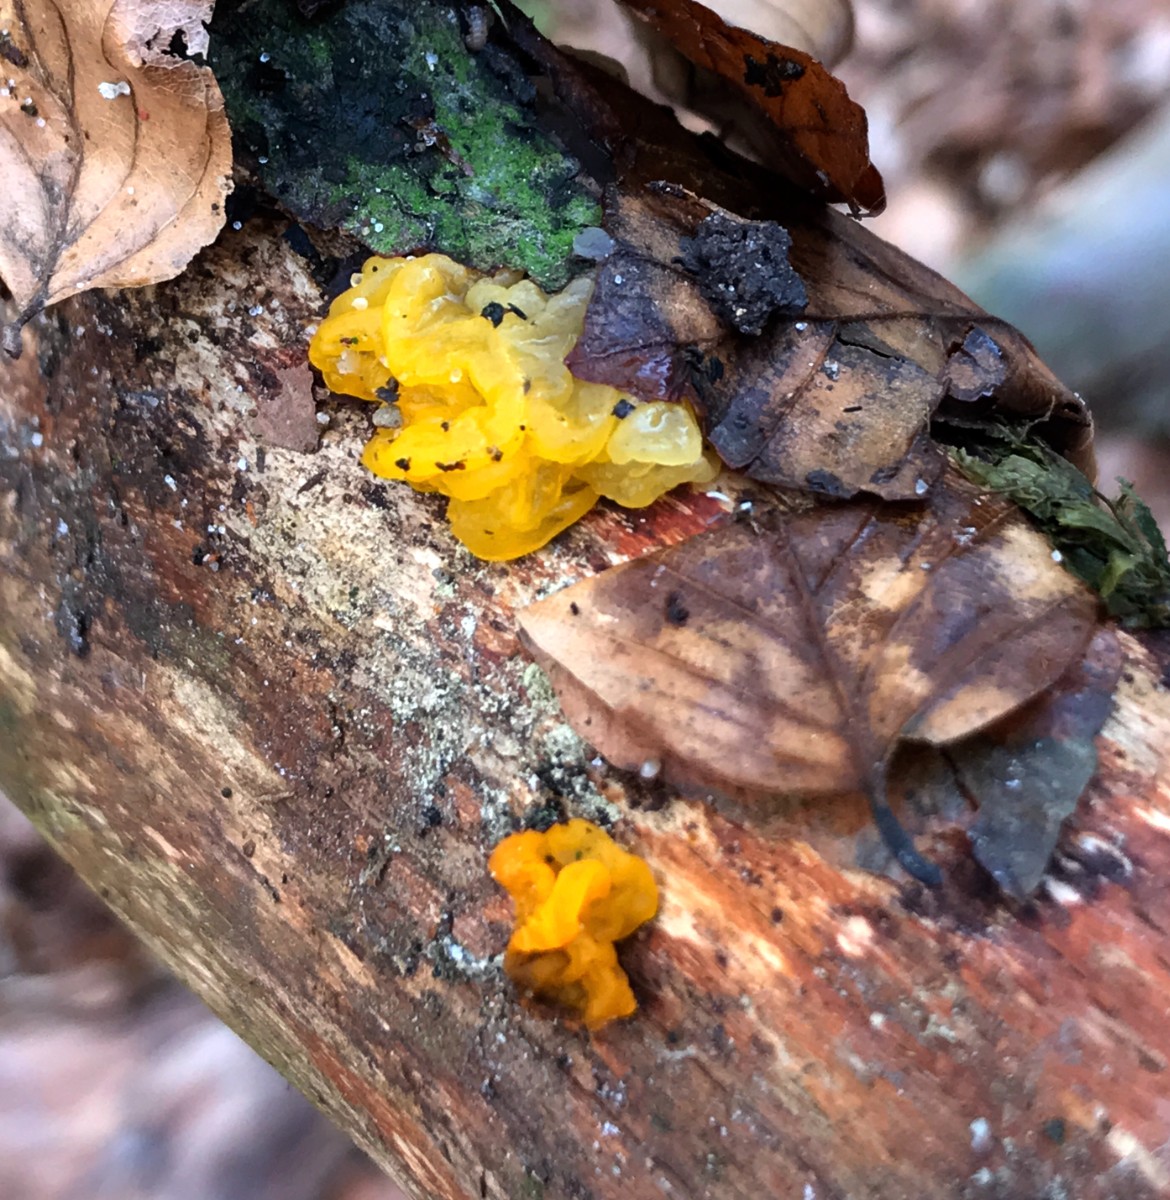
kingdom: Fungi
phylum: Basidiomycota
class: Tremellomycetes
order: Tremellales
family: Tremellaceae
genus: Tremella
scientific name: Tremella mesenterica
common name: gul bævresvamp
